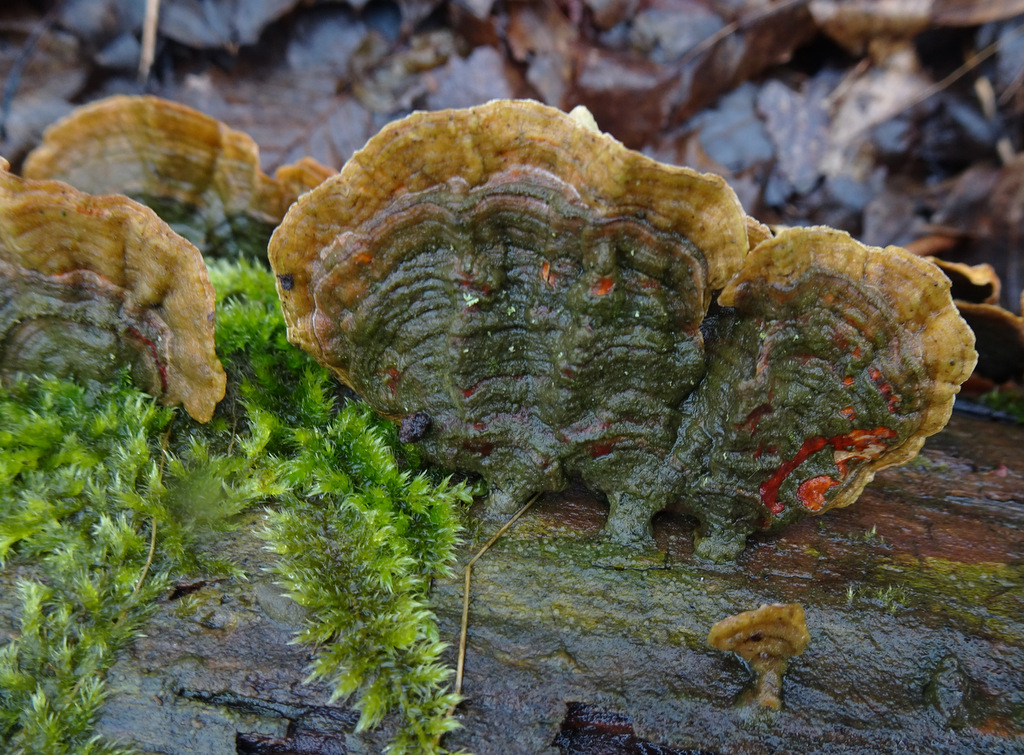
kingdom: Fungi
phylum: Basidiomycota
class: Agaricomycetes
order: Russulales
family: Stereaceae
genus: Stereum
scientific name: Stereum subtomentosum
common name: smuk lædersvamp
